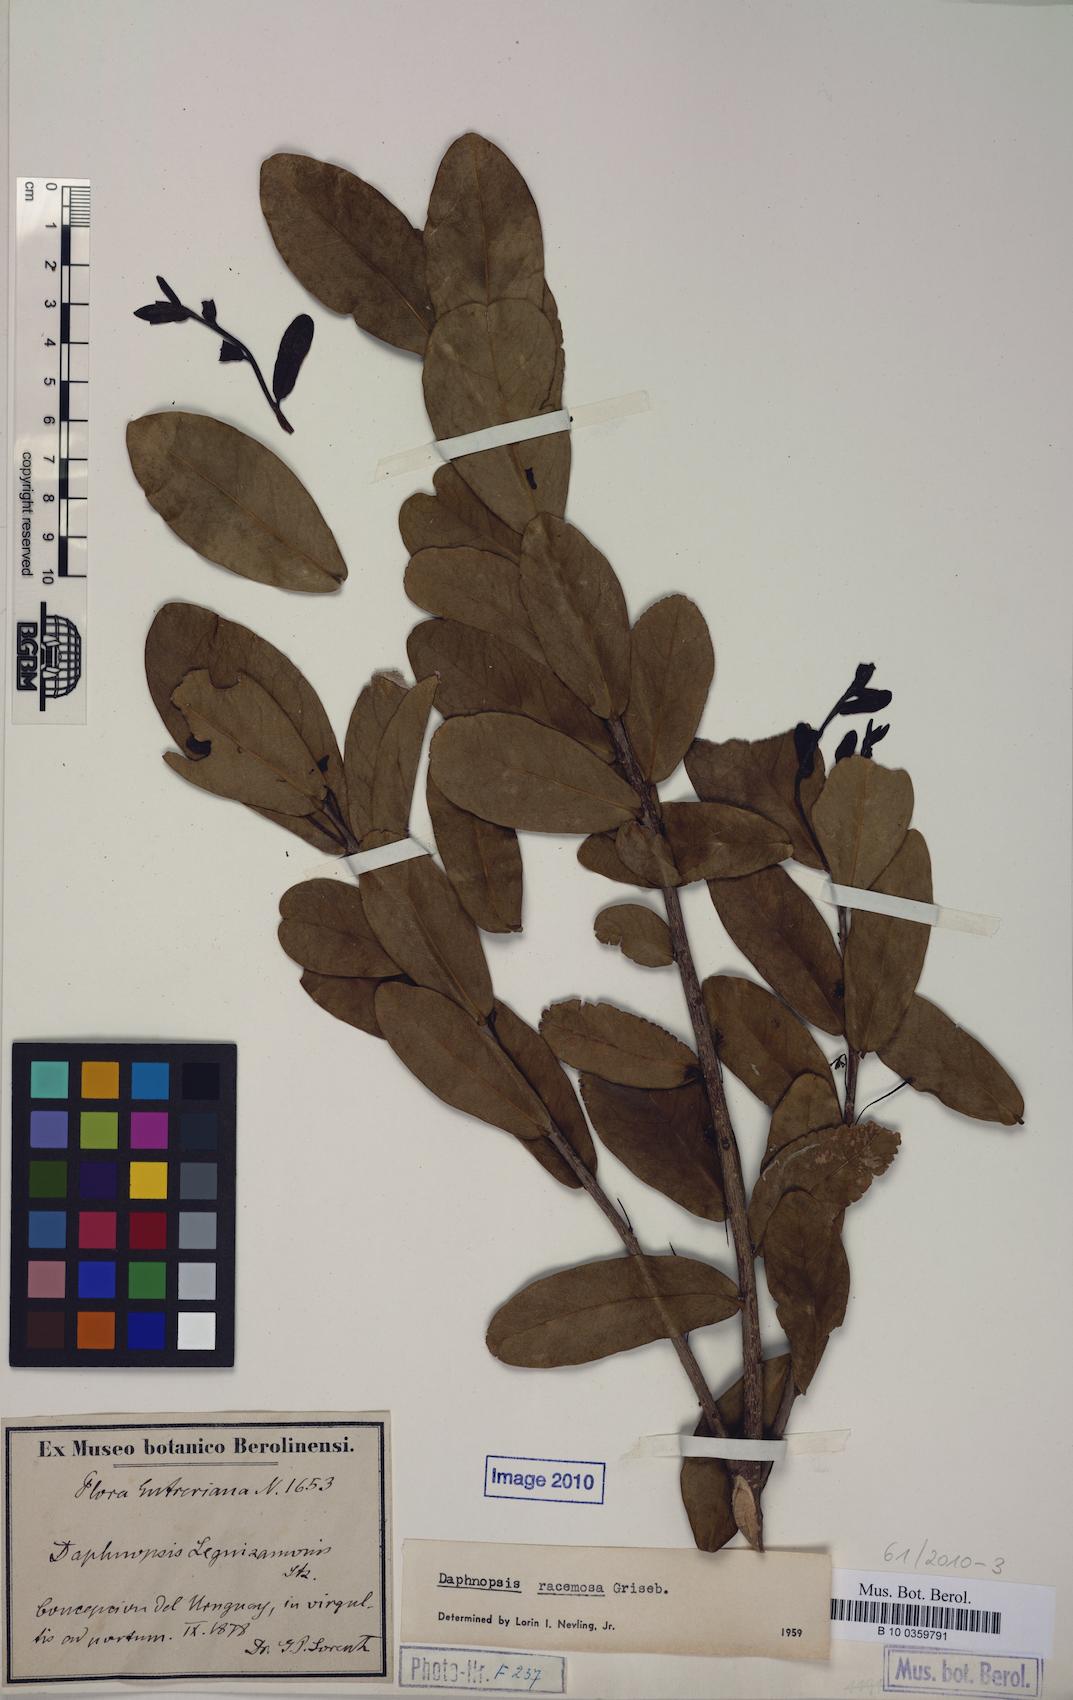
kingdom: Plantae
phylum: Tracheophyta
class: Magnoliopsida
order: Malvales
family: Thymelaeaceae
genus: Daphnopsis
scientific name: Daphnopsis racemosa
